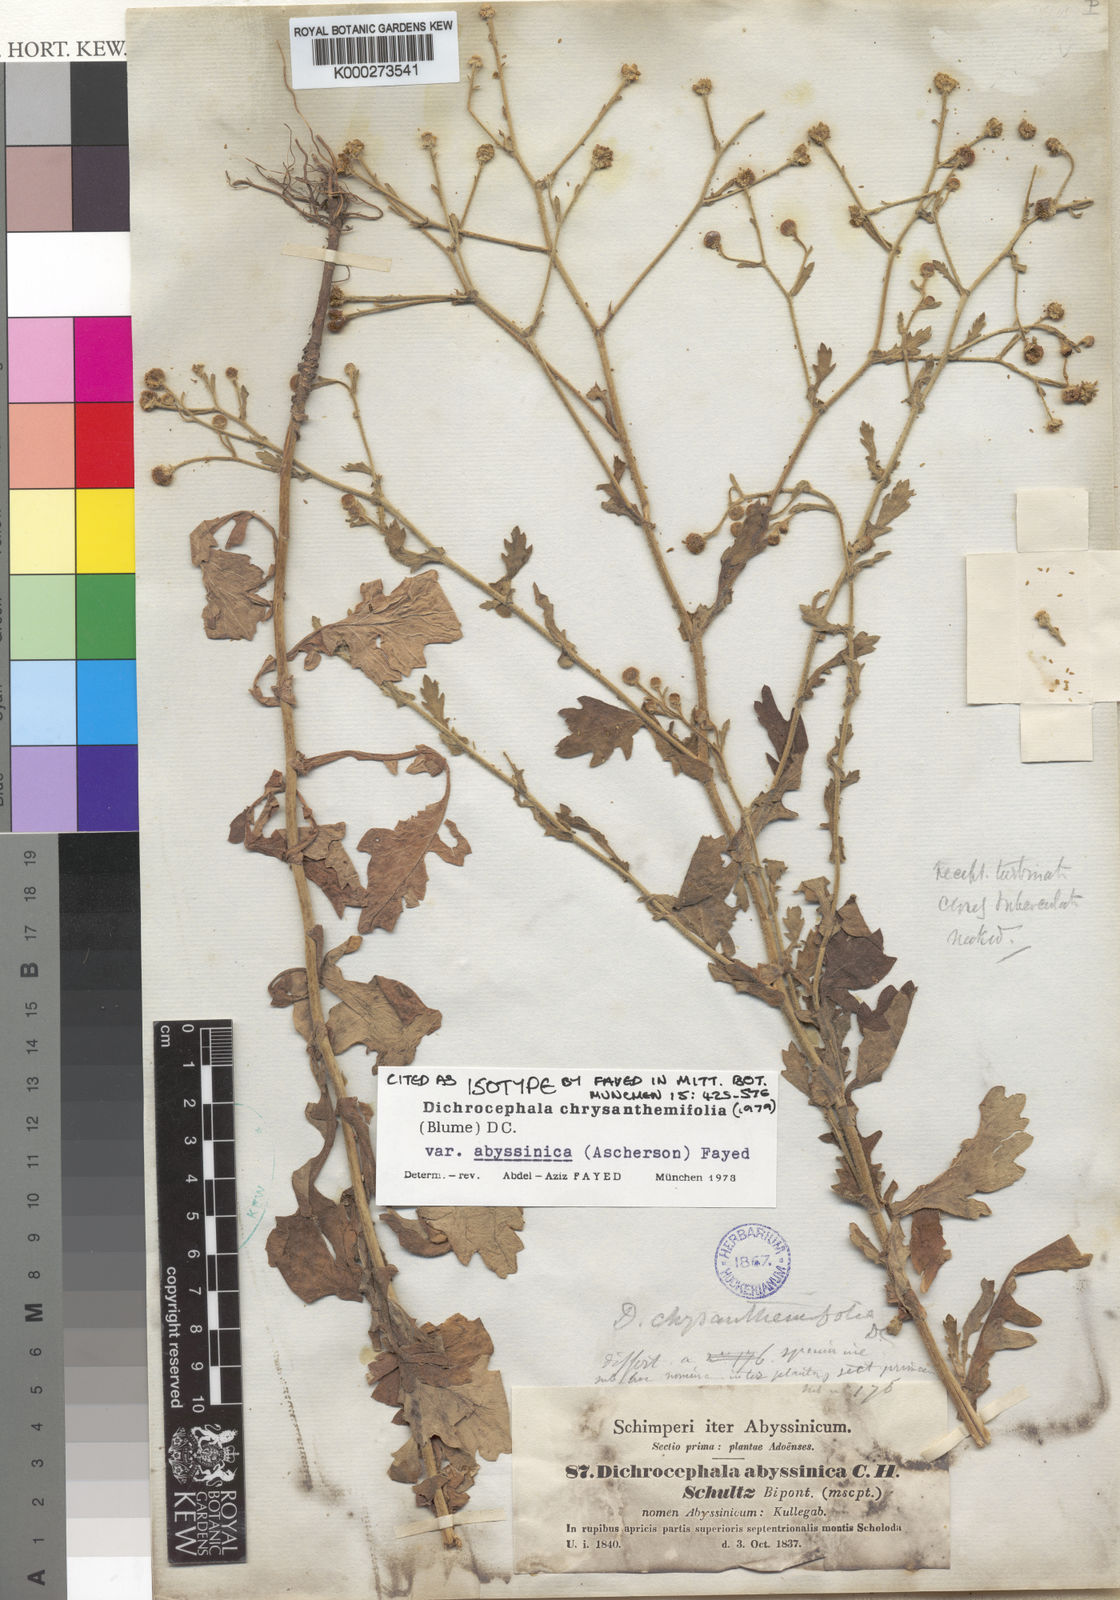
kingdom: Plantae
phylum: Tracheophyta
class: Magnoliopsida
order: Asterales
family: Asteraceae
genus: Dichrocephala
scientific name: Dichrocephala chrysanthemifolia
